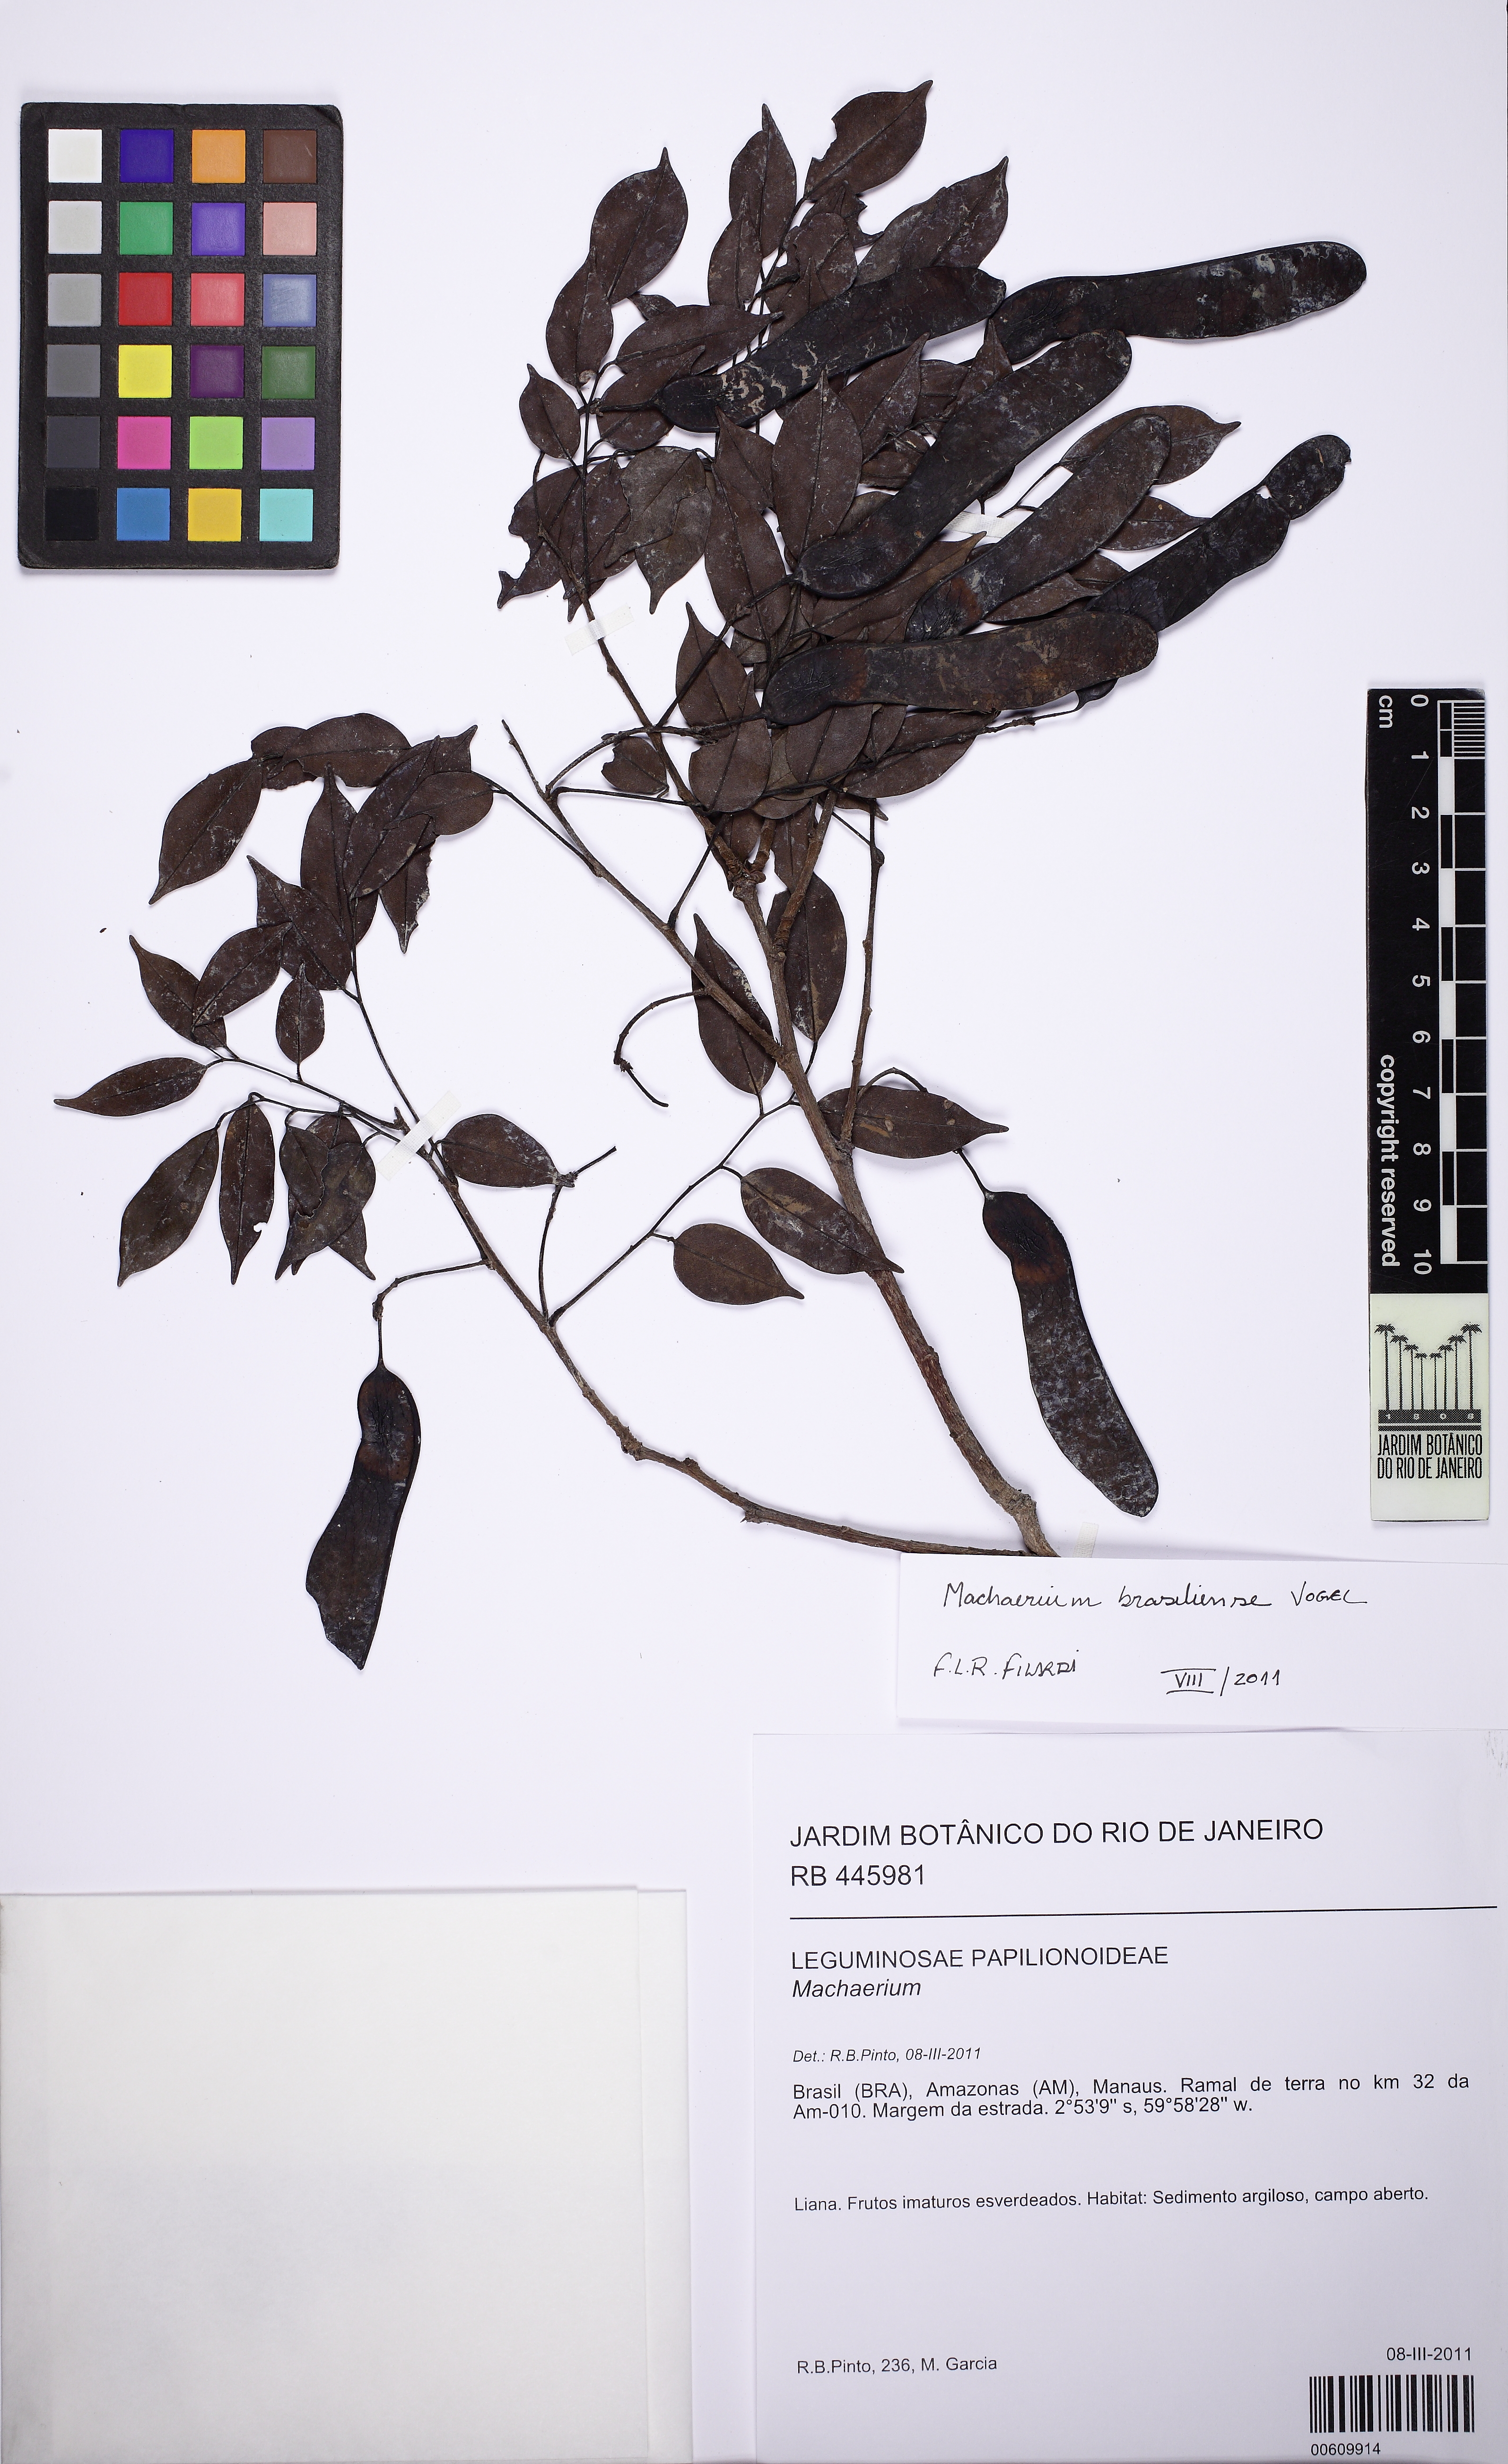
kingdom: Plantae
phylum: Tracheophyta
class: Magnoliopsida
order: Fabales
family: Fabaceae
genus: Machaerium
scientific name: Machaerium brasiliense
